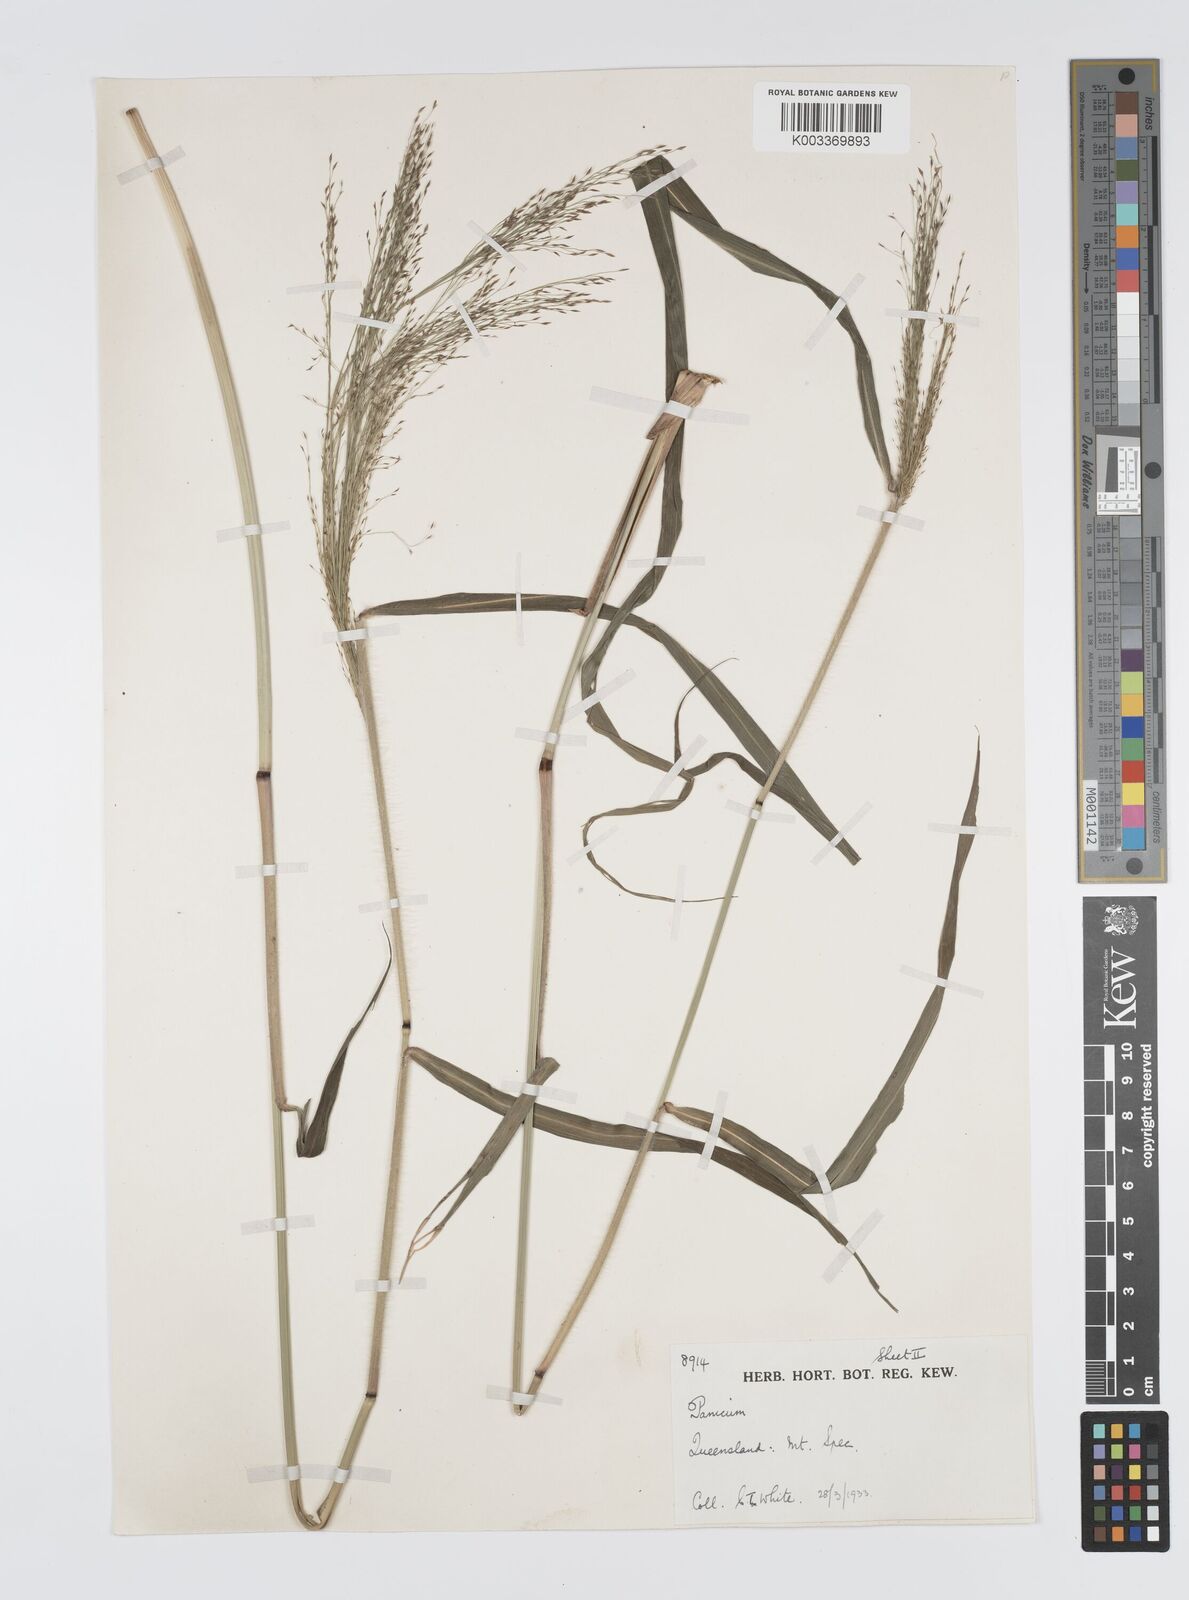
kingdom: Plantae
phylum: Tracheophyta
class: Liliopsida
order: Poales
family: Poaceae
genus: Panicum
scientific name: Panicum mitchellii
